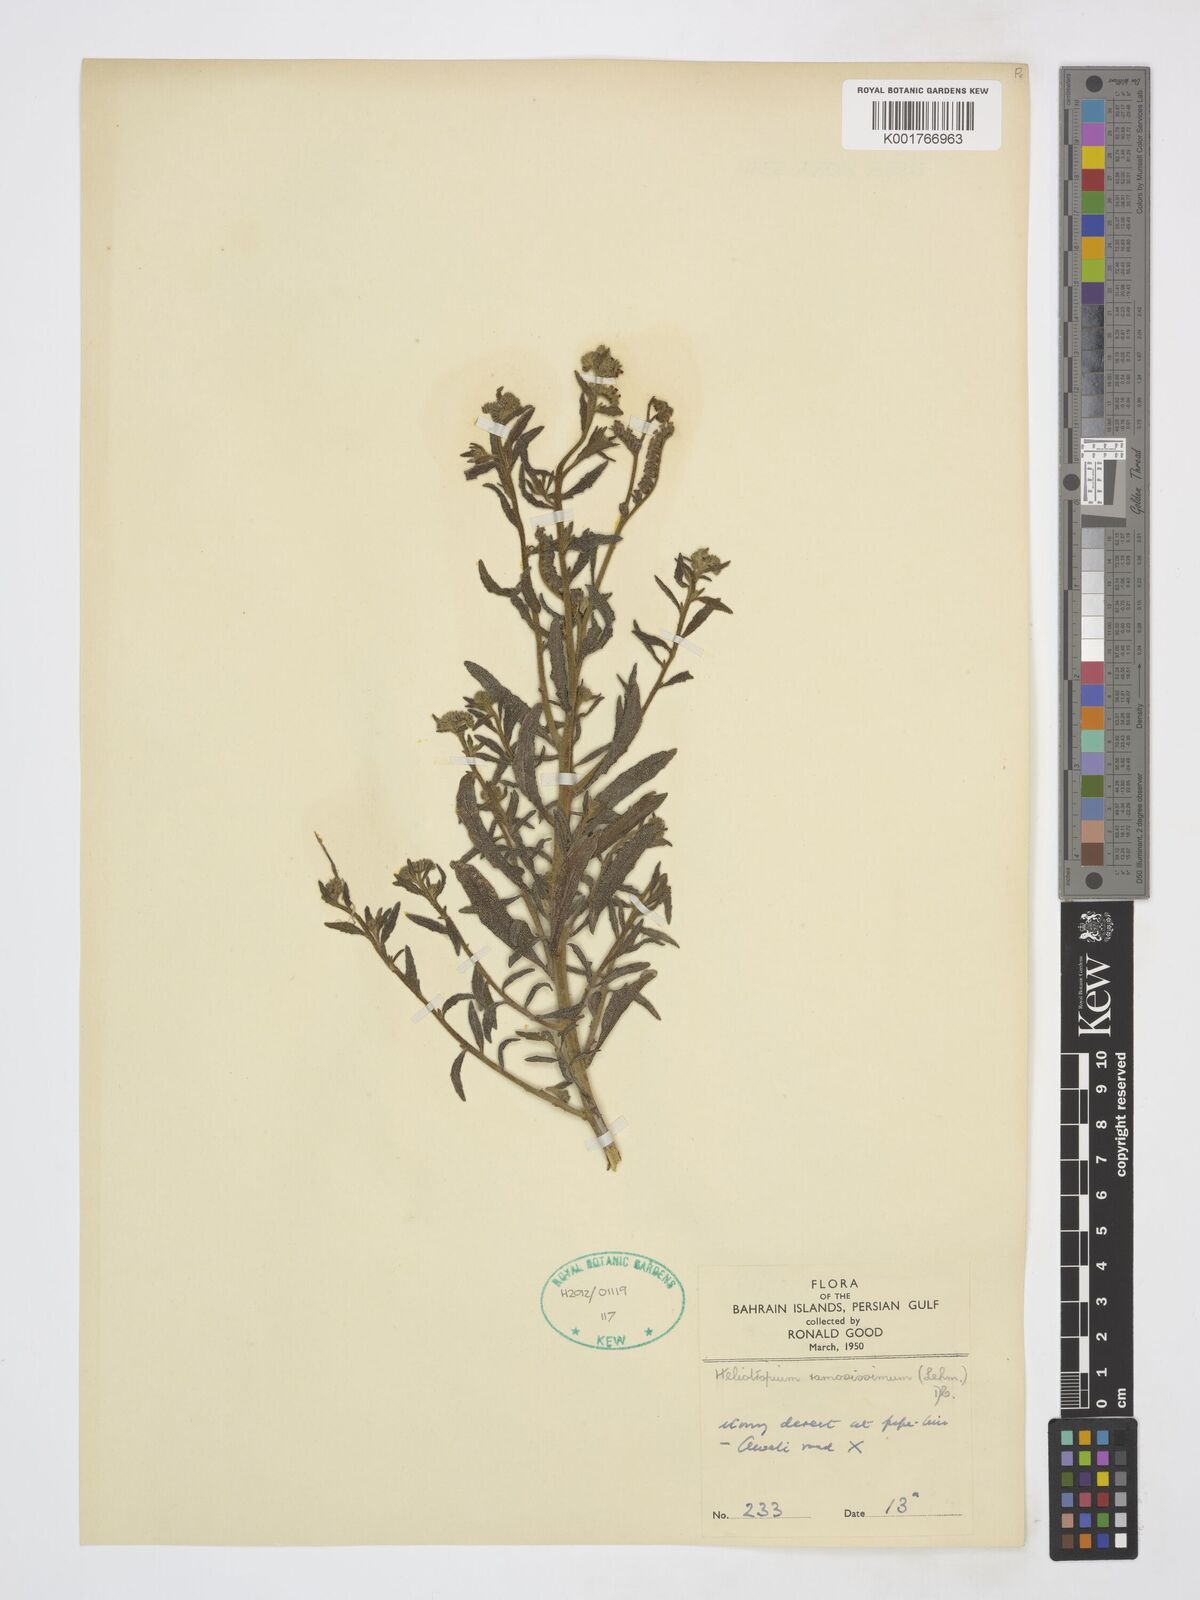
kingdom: Plantae
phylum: Tracheophyta
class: Magnoliopsida
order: Boraginales
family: Heliotropiaceae
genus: Heliotropium
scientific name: Heliotropium ramosissimum
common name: Wavy heliotrope
